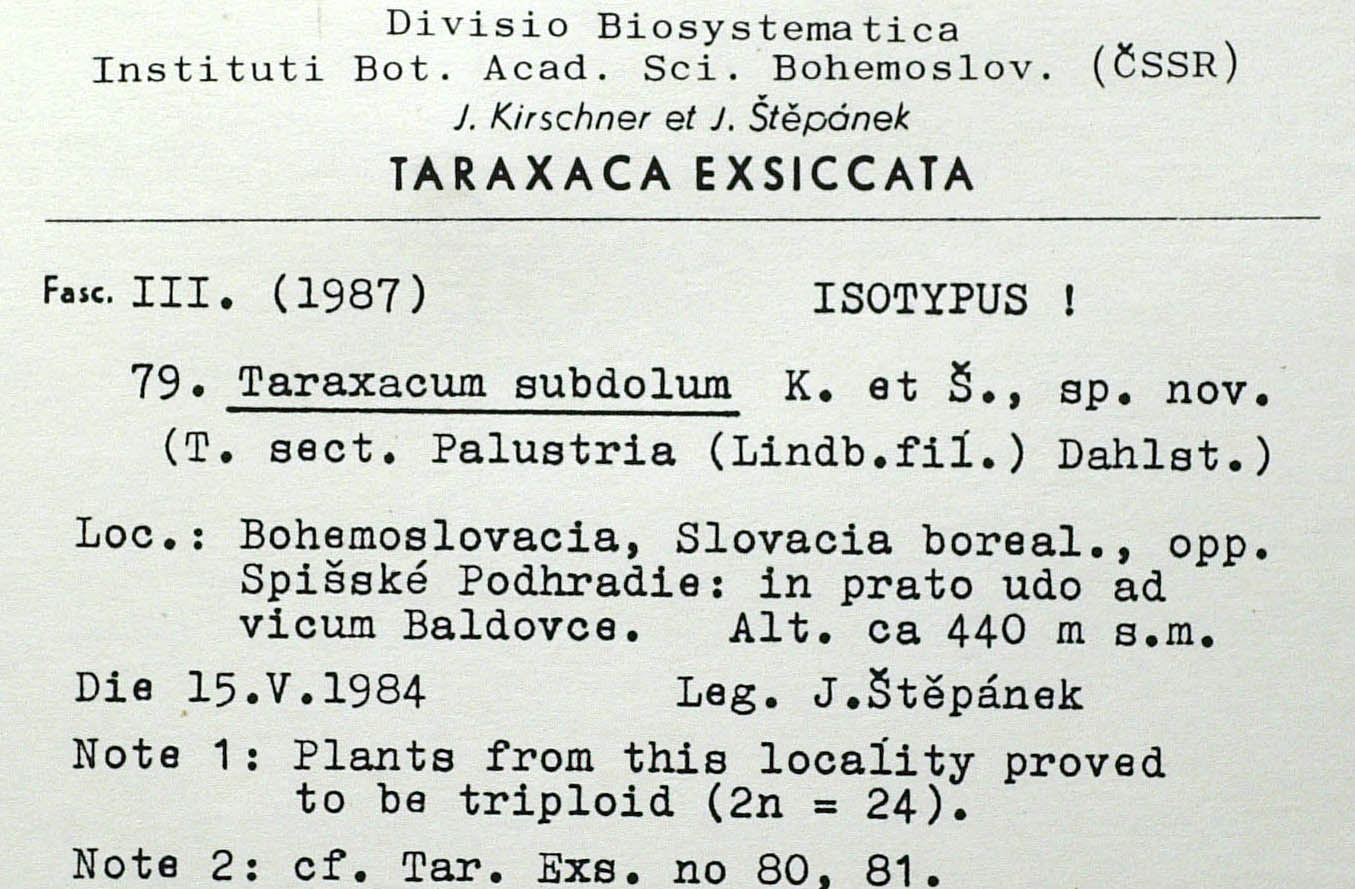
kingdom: Plantae
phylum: Tracheophyta
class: Magnoliopsida
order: Asterales
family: Asteraceae
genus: Taraxacum
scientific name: Taraxacum subdolum
